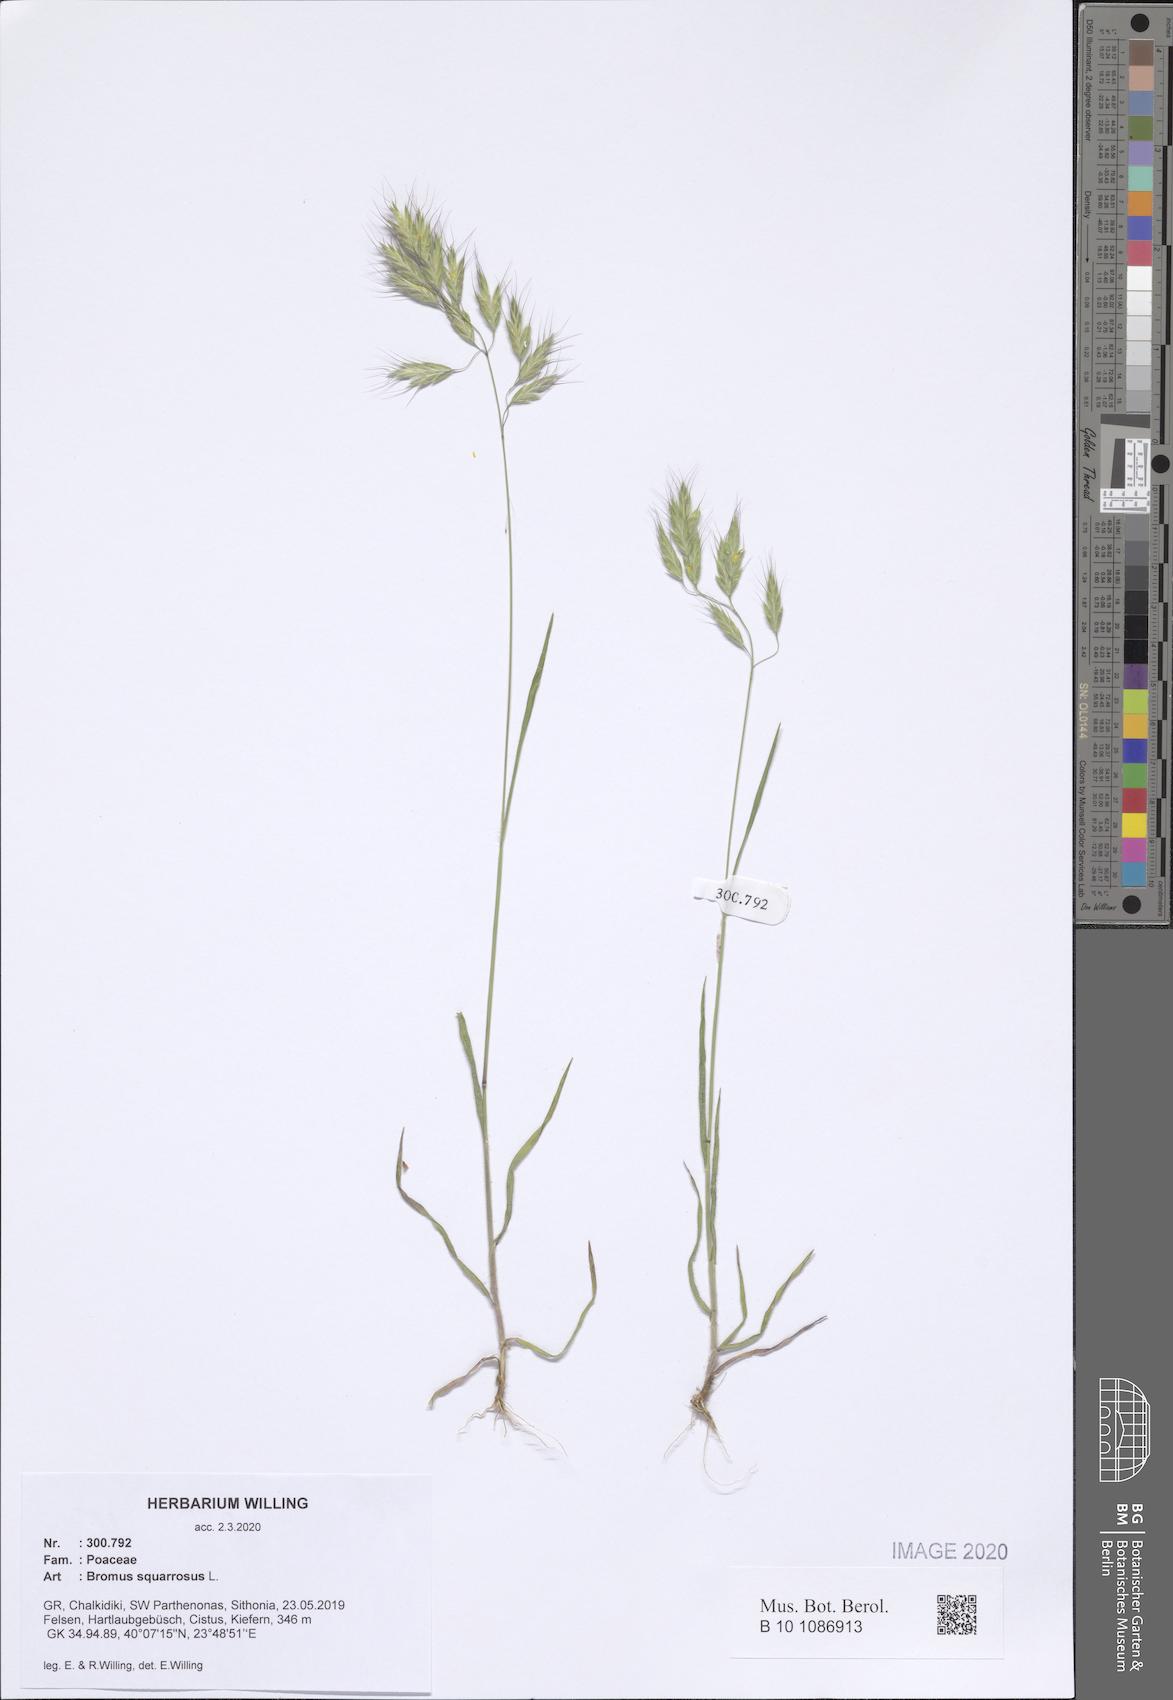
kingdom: Plantae
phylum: Tracheophyta
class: Liliopsida
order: Poales
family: Poaceae
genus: Bromus
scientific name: Bromus squarrosus
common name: Corn brome
